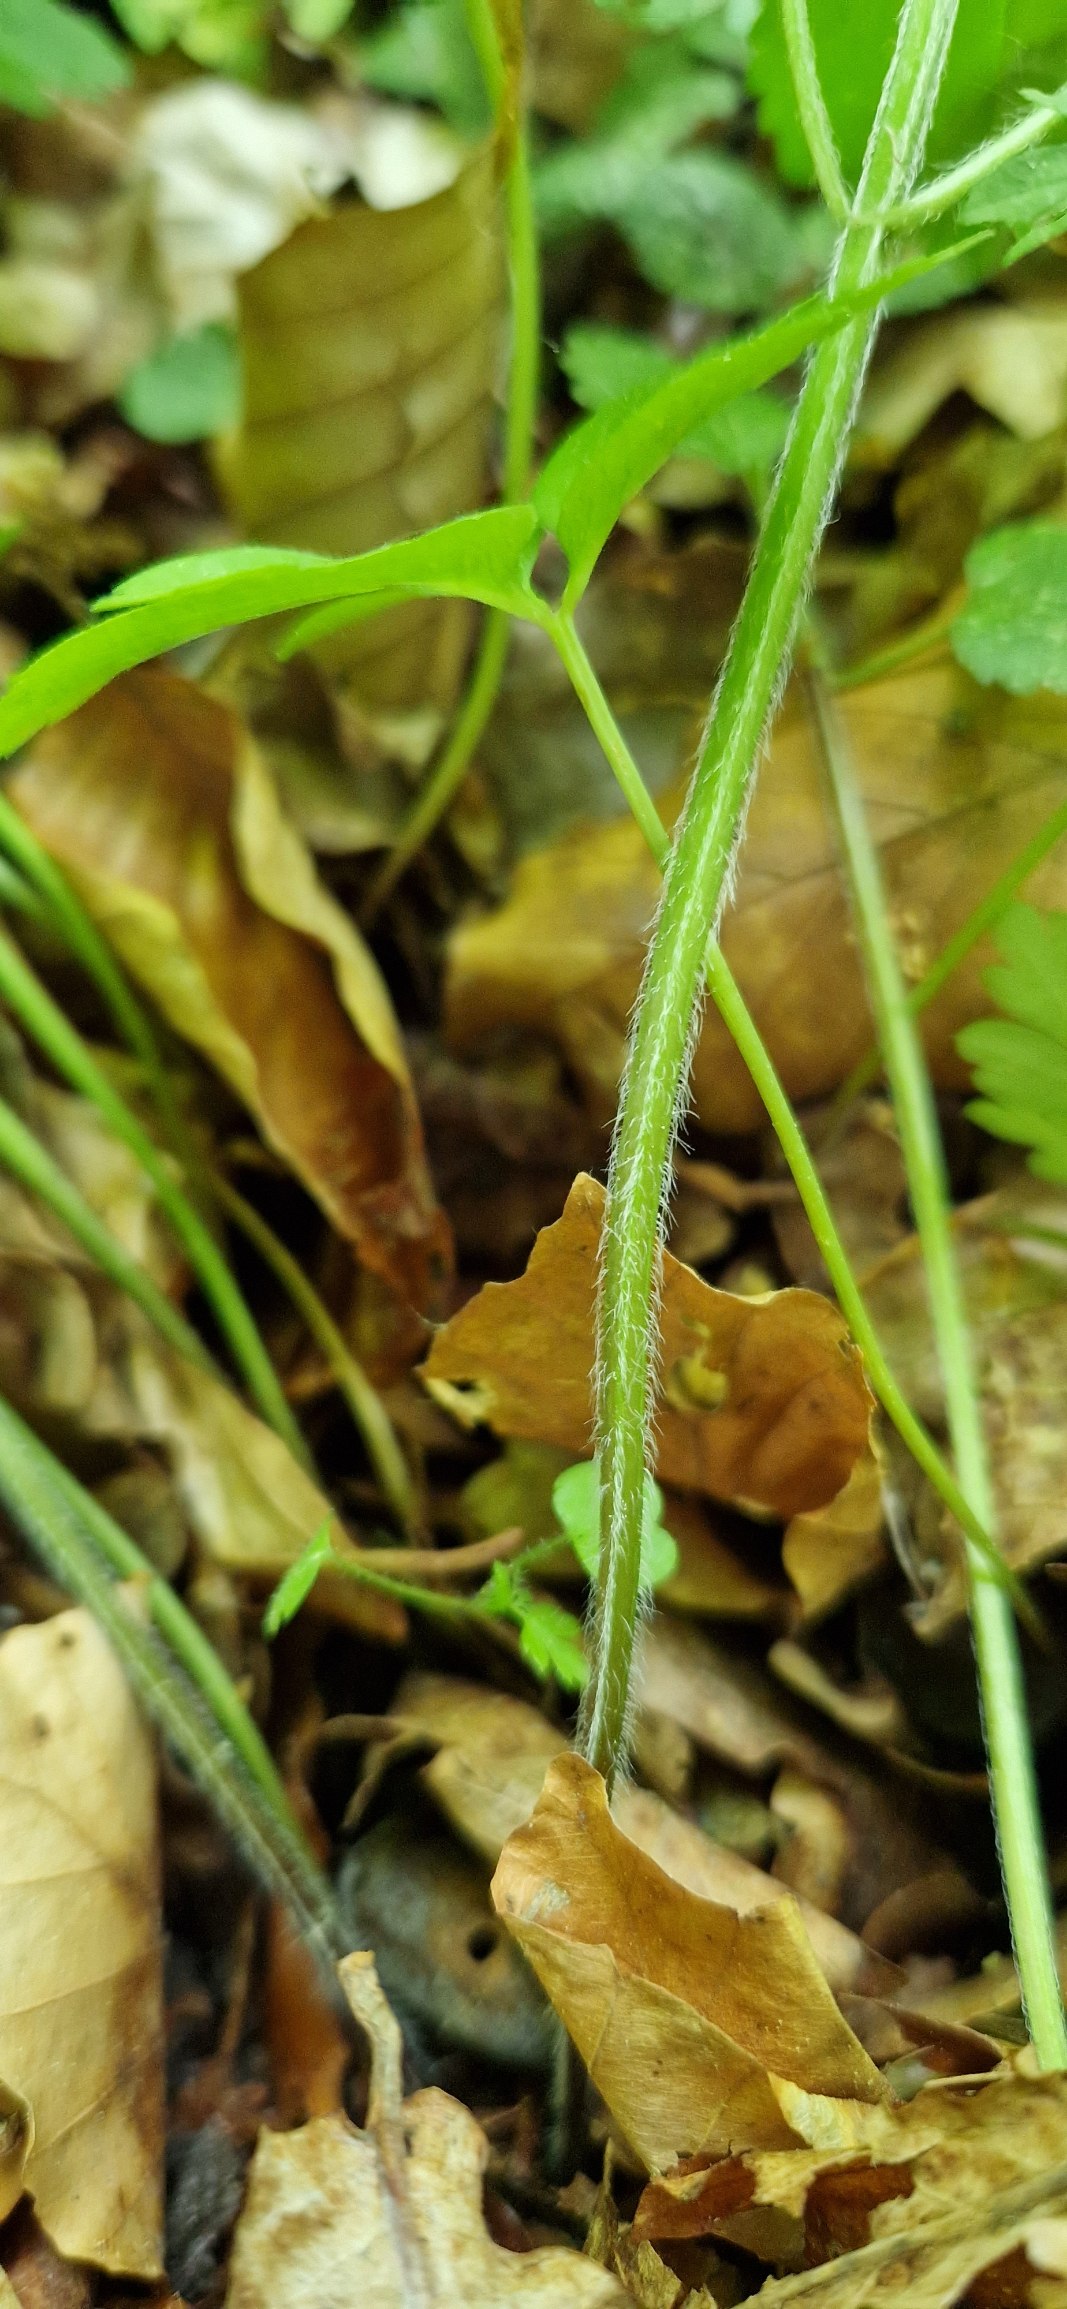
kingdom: Plantae
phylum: Tracheophyta
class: Magnoliopsida
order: Lamiales
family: Lamiaceae
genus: Lamium
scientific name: Lamium galeobdolon
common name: Almindelig guldnælde
